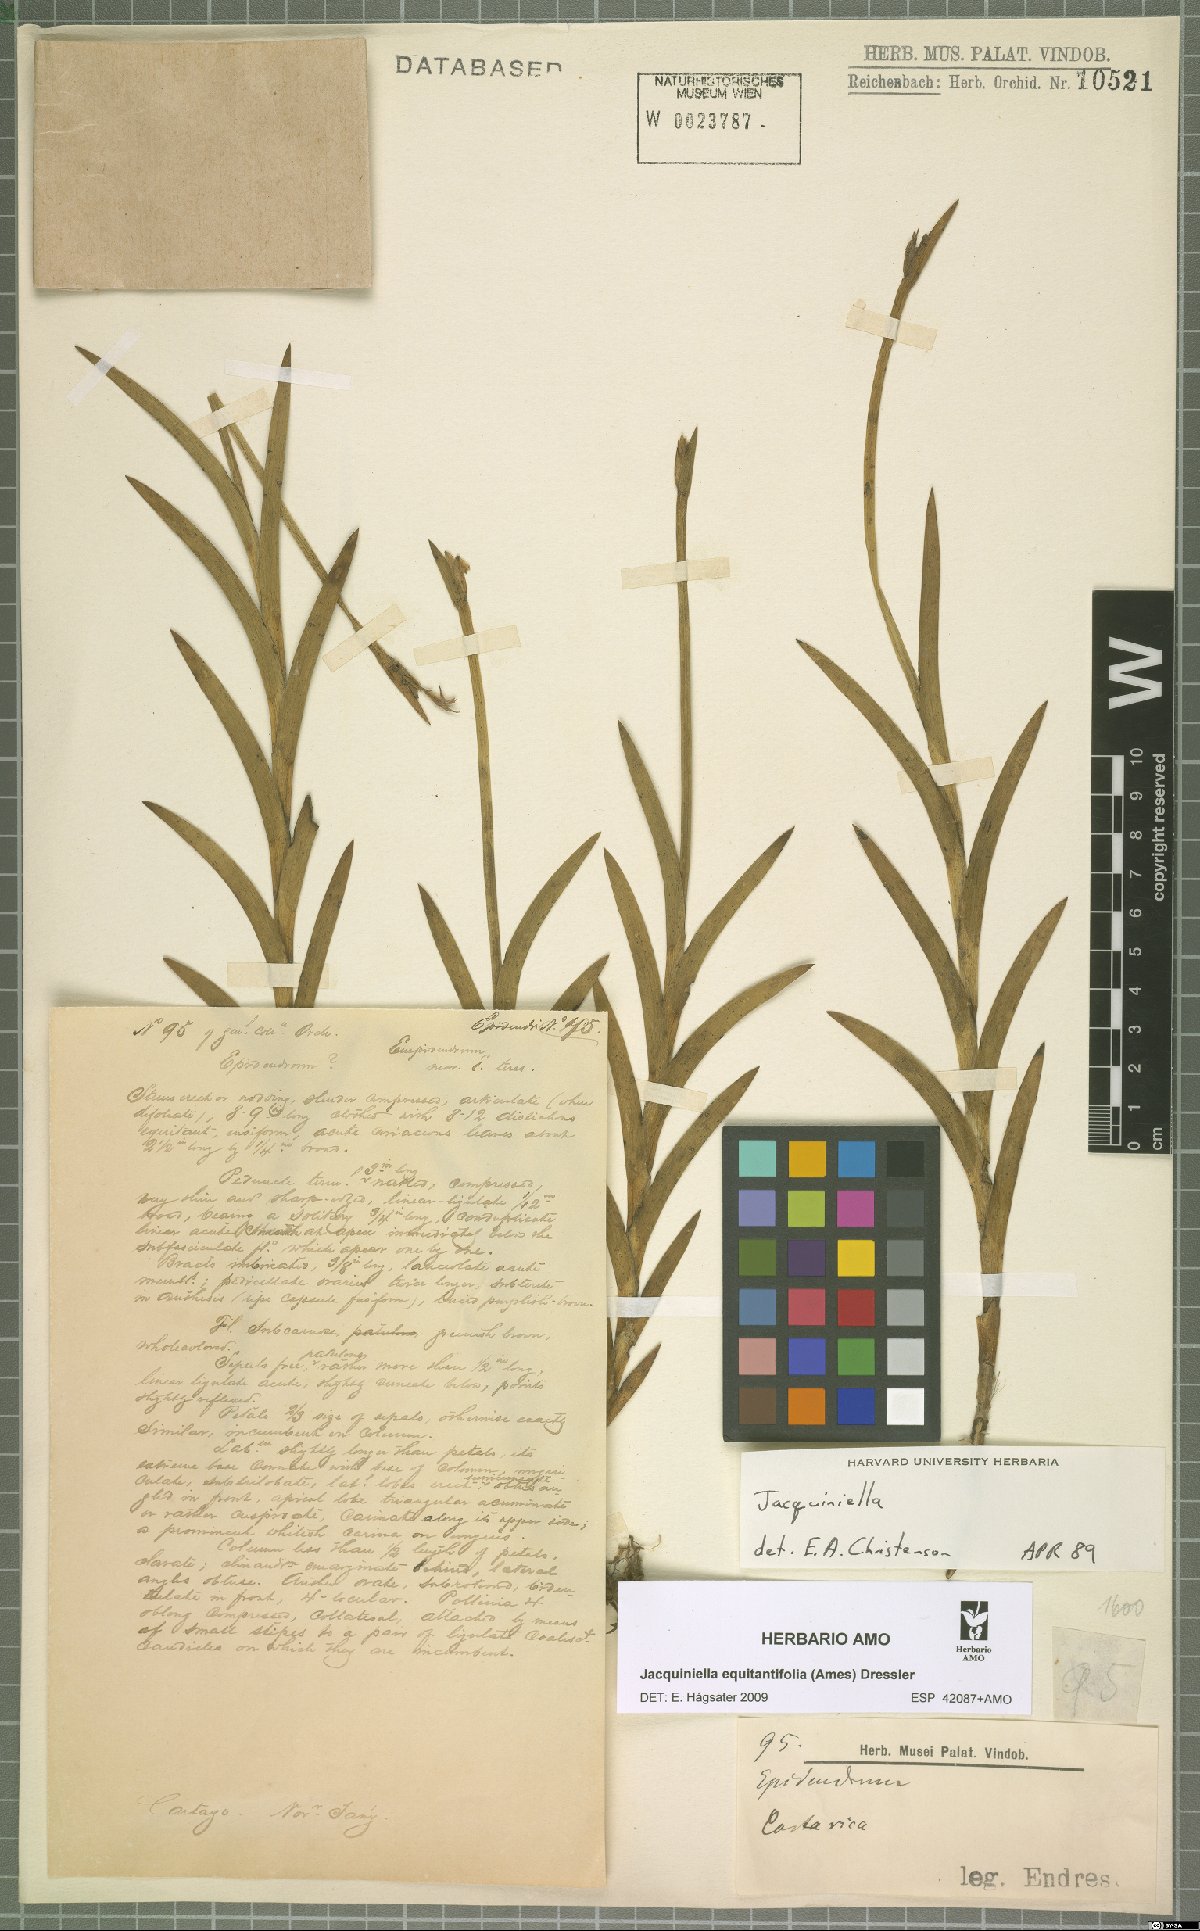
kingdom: Plantae
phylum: Tracheophyta
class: Liliopsida
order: Asparagales
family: Orchidaceae
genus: Jacquiniella
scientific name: Jacquiniella equitantifolia
